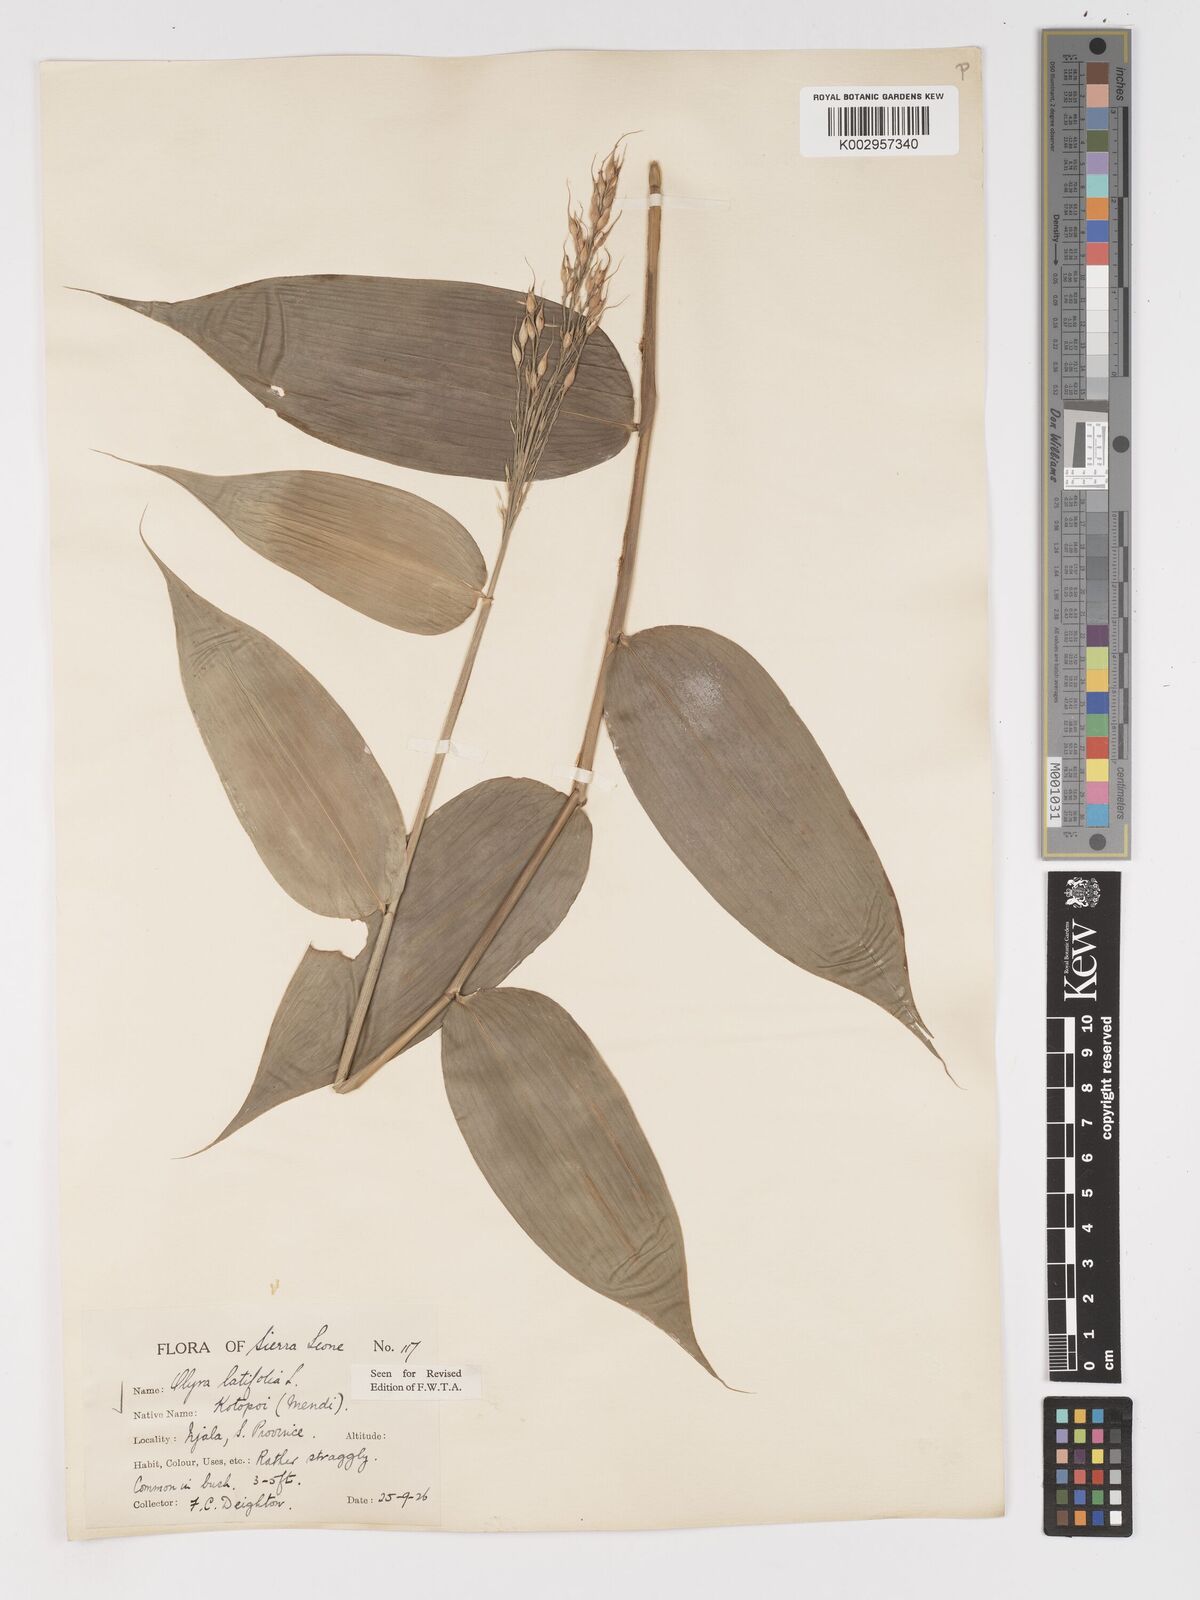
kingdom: Plantae
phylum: Tracheophyta
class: Liliopsida
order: Poales
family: Poaceae
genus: Olyra
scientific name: Olyra latifolia
